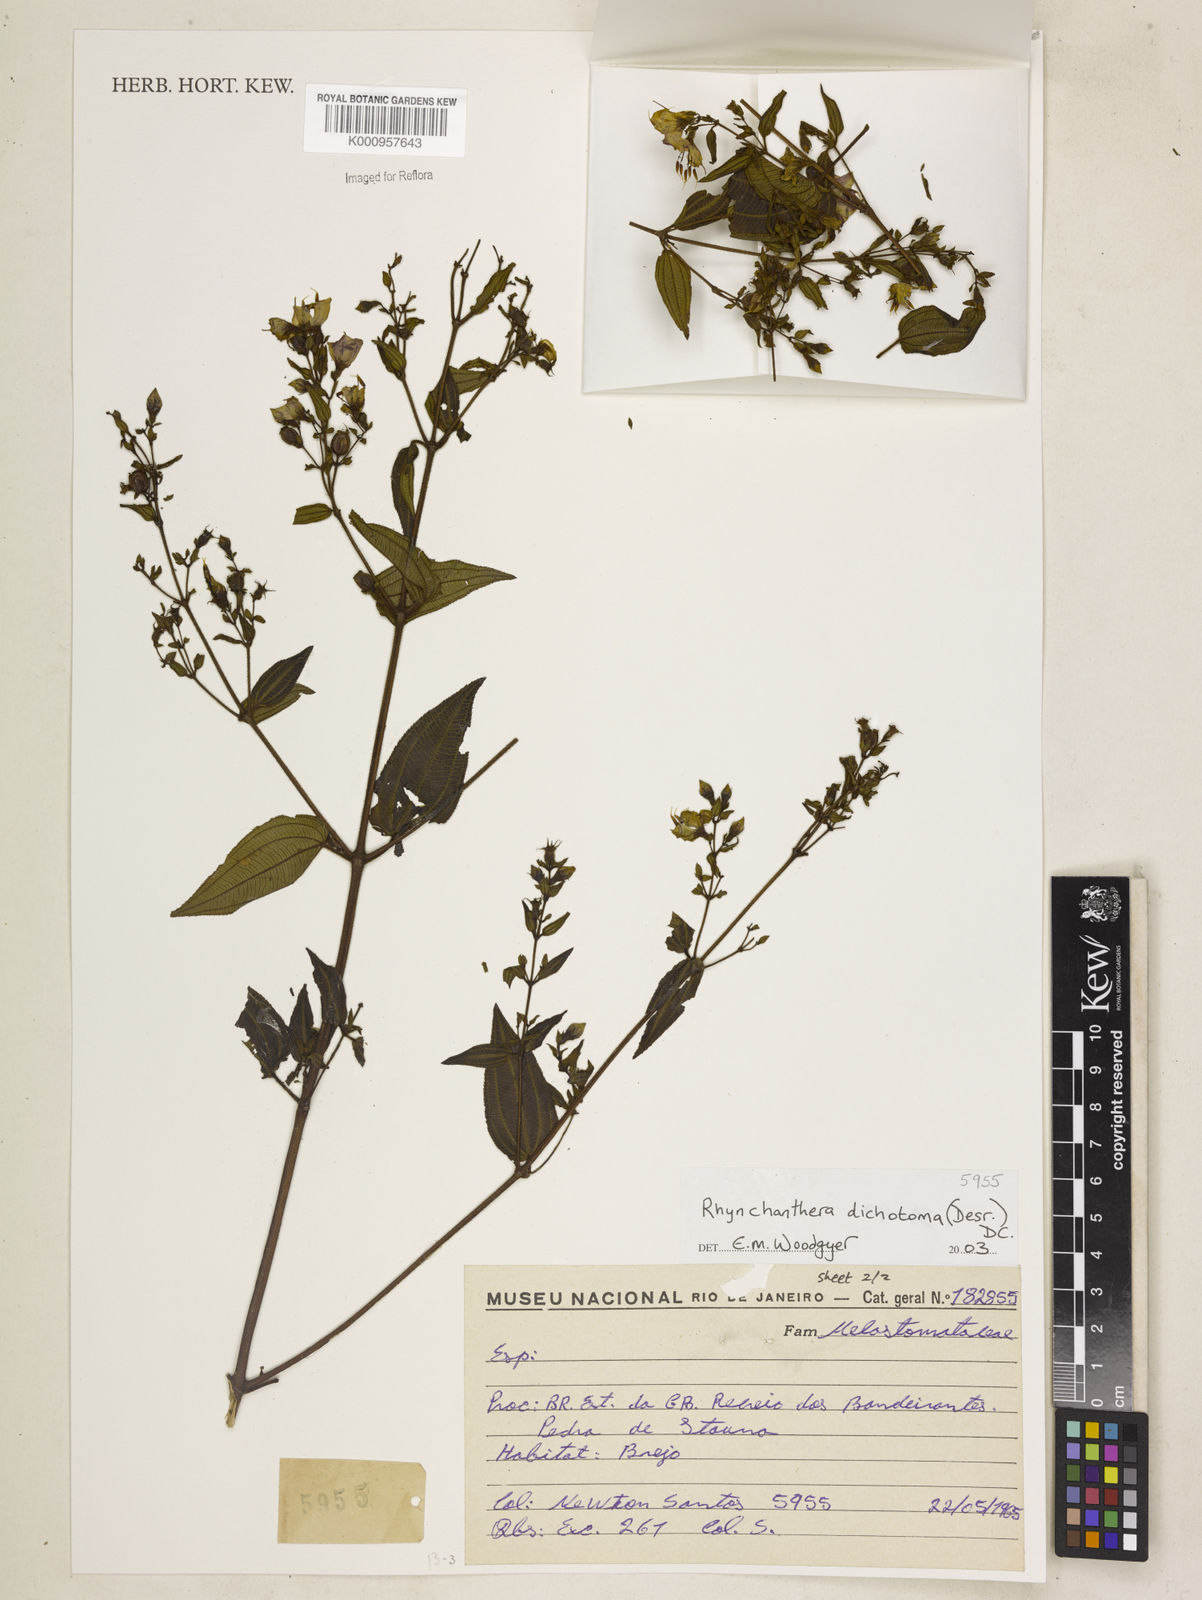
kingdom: Plantae
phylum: Tracheophyta
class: Magnoliopsida
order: Myrtales
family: Melastomataceae
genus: Rhynchanthera
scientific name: Rhynchanthera dichotoma
